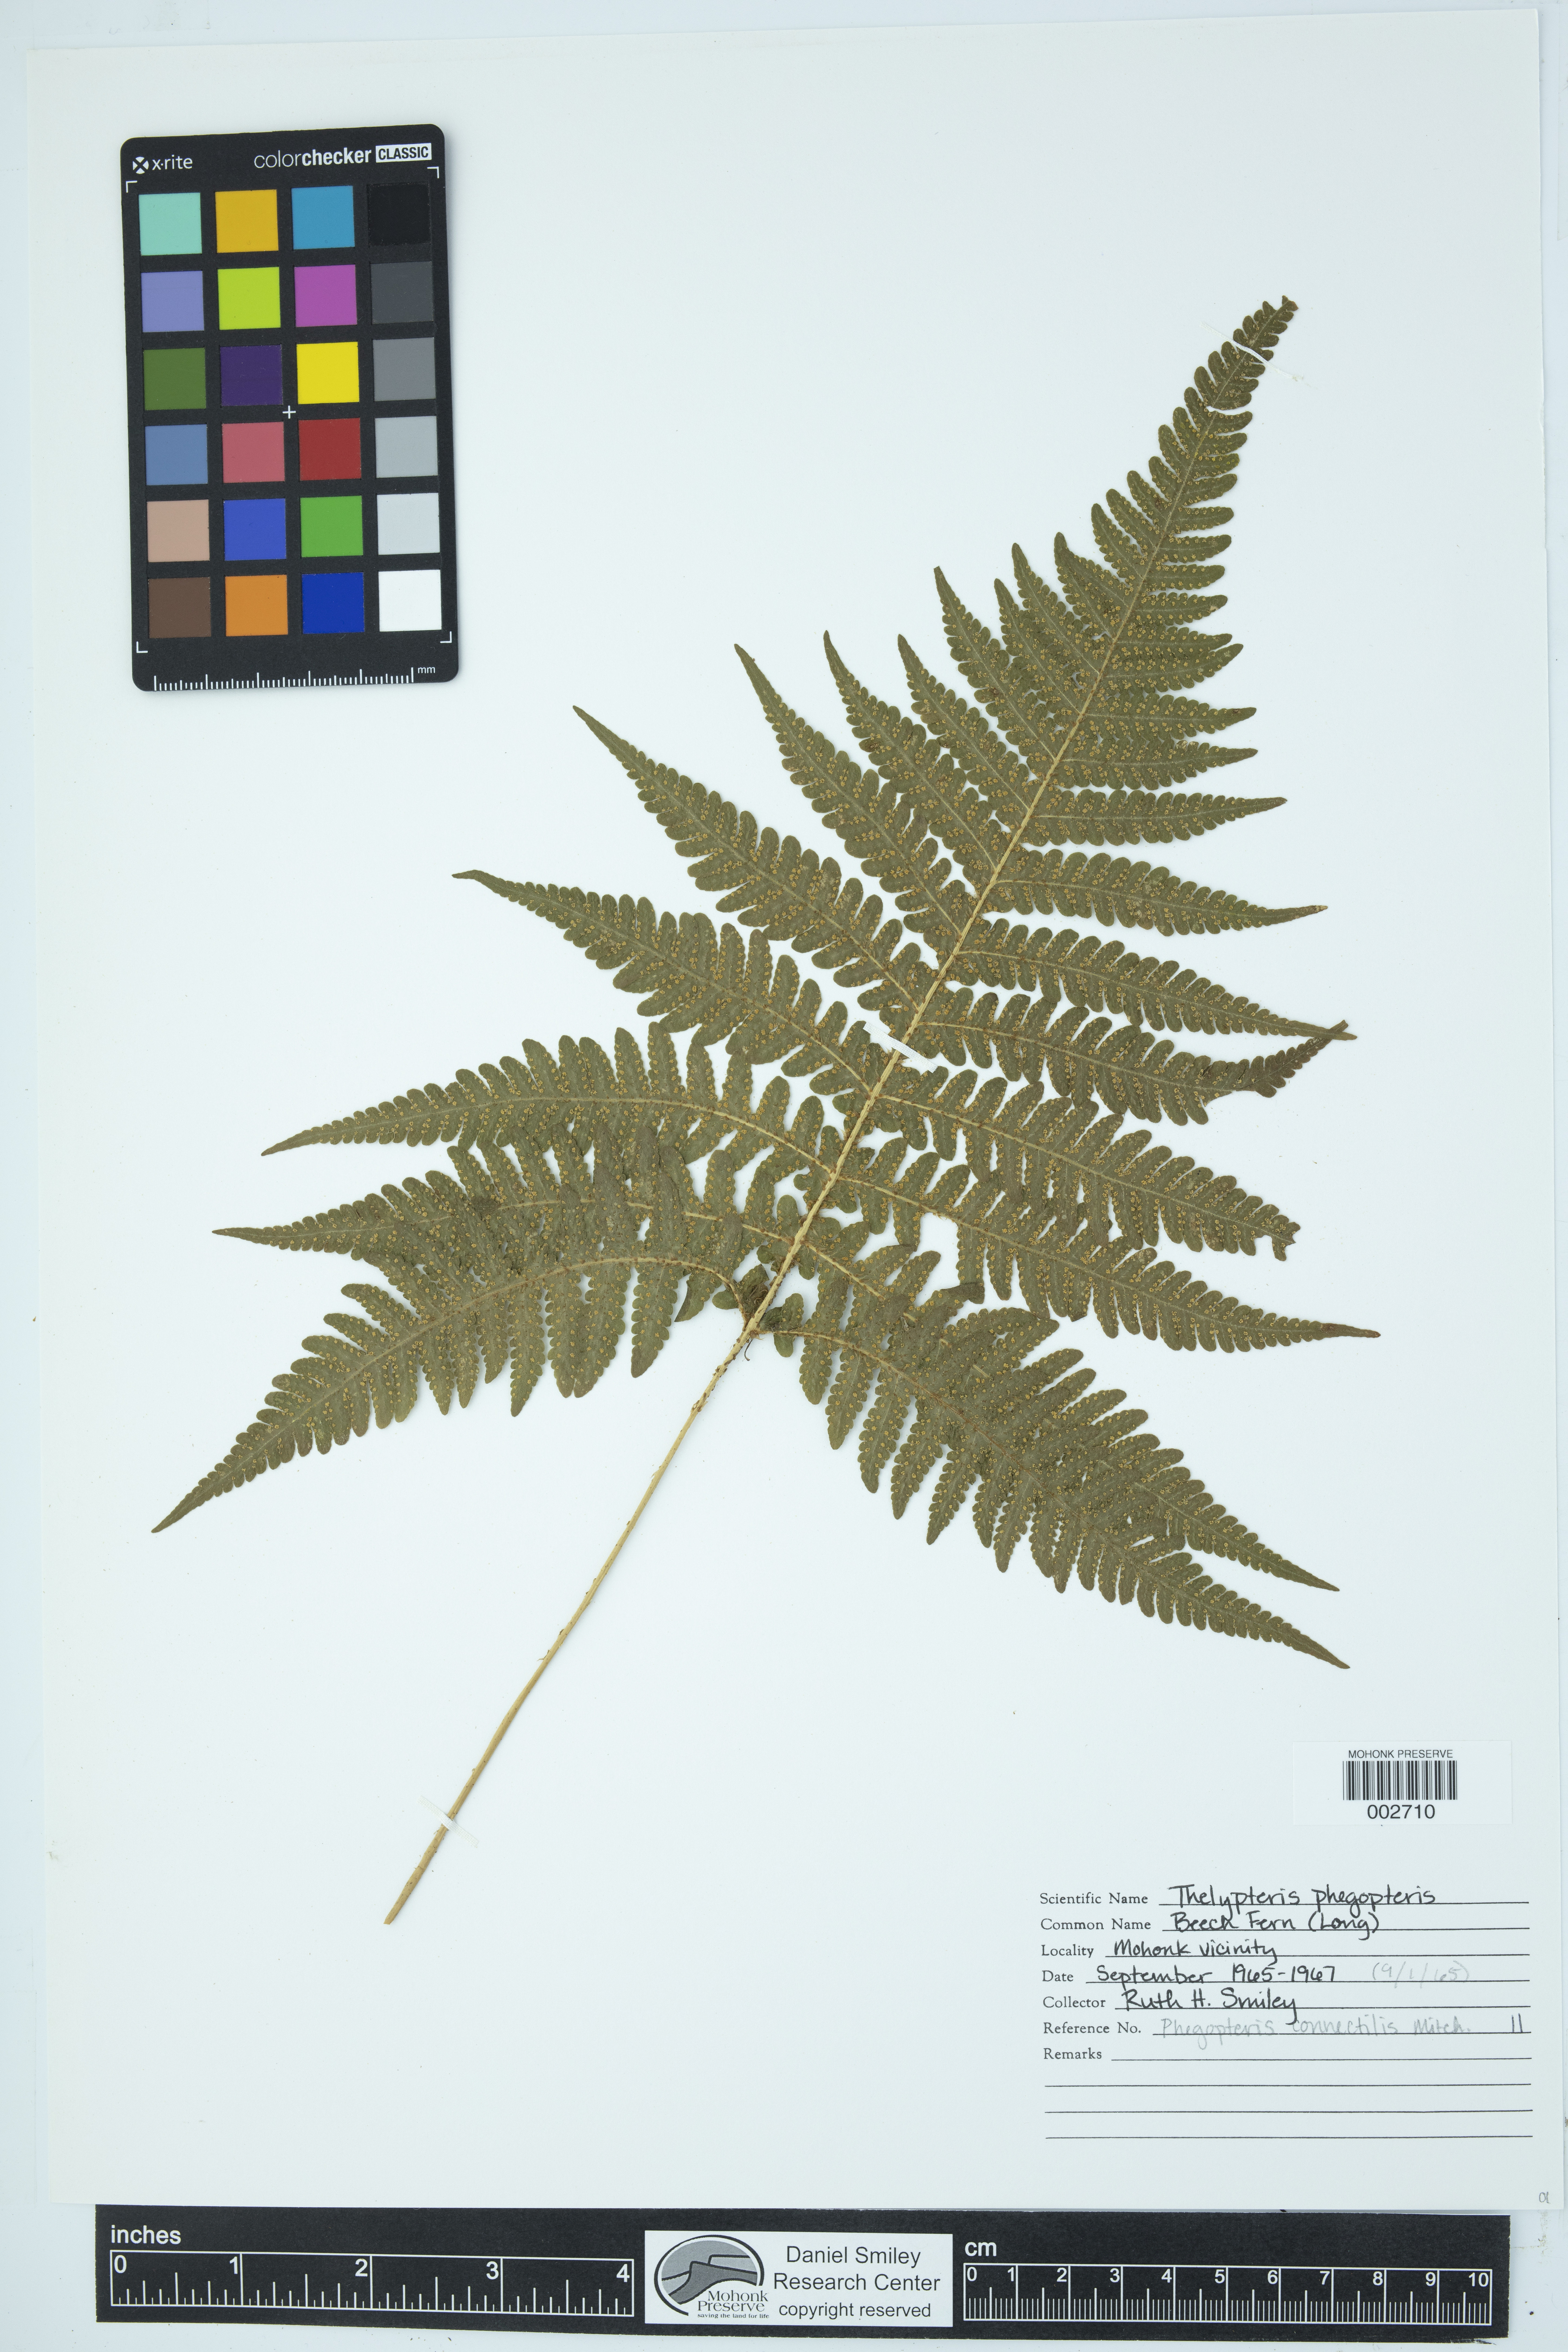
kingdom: Plantae
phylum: Tracheophyta
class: Polypodiopsida
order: Polypodiales
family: Thelypteridaceae
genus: Phegopteris
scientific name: Phegopteris connectilis
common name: Beech fern
